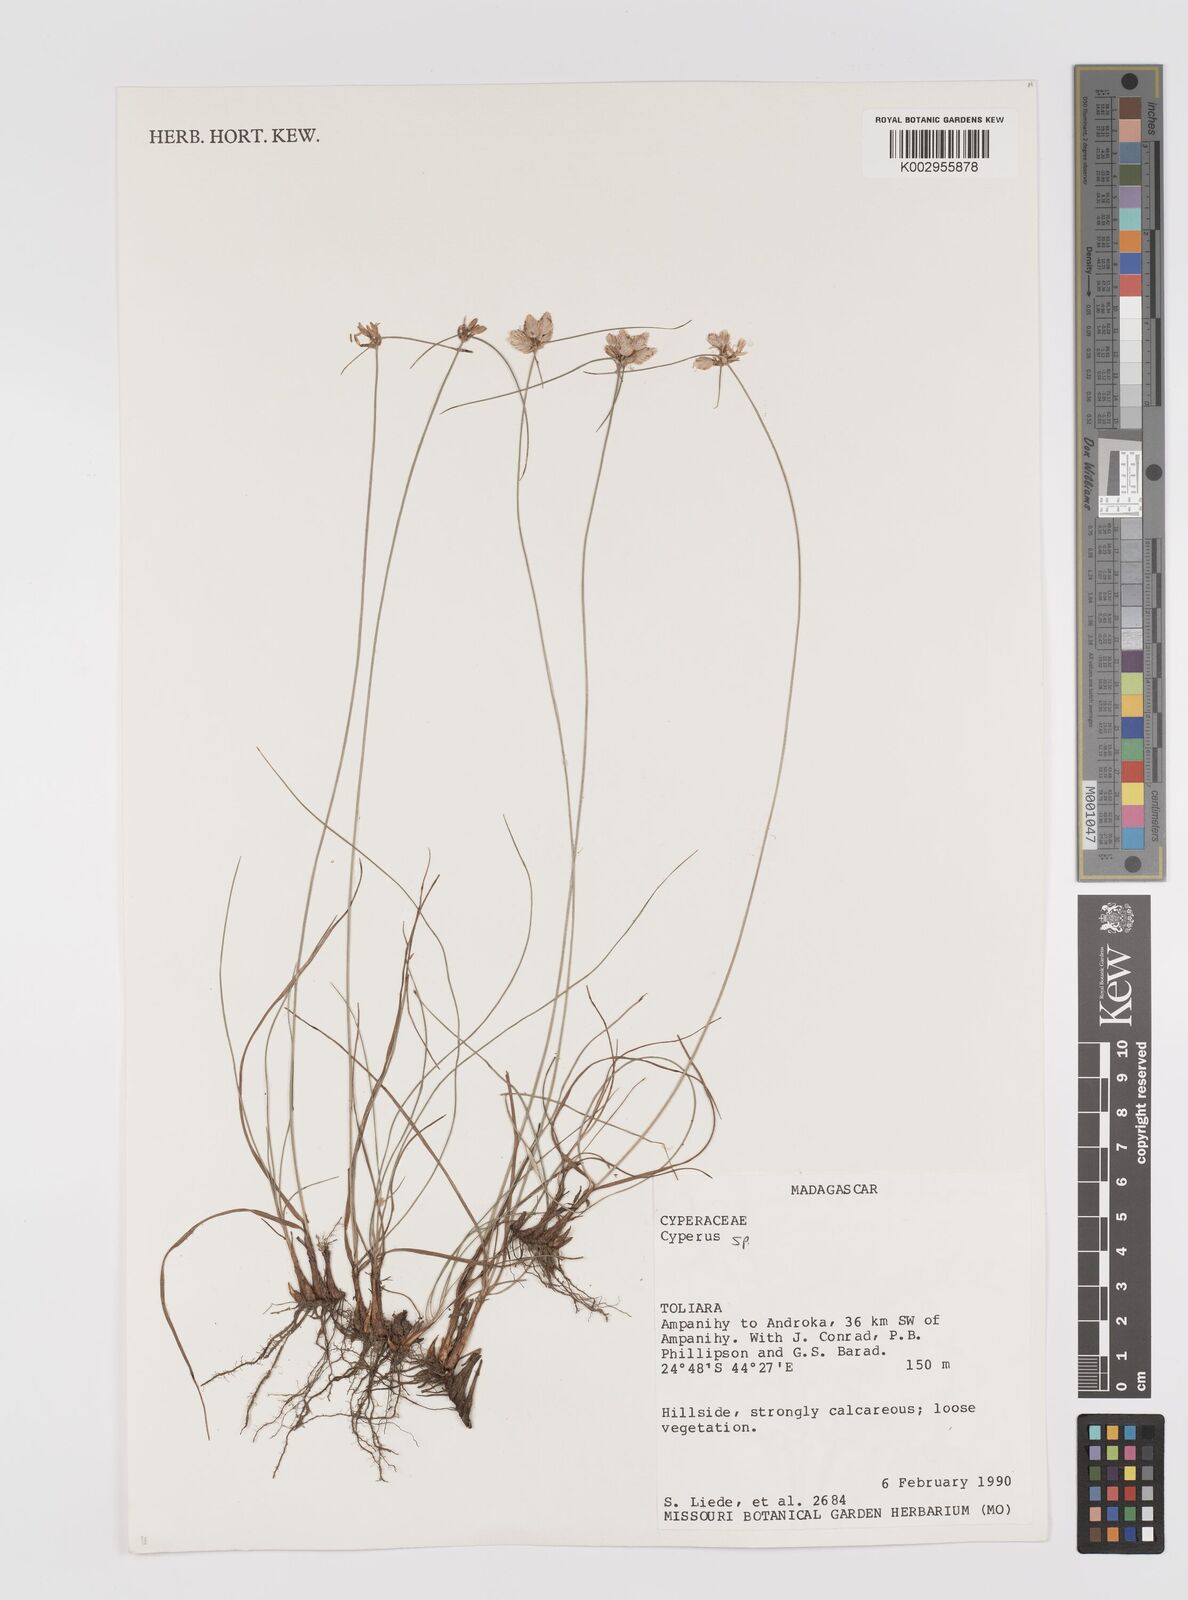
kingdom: Plantae
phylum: Tracheophyta
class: Liliopsida
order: Poales
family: Cyperaceae
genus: Cyperus
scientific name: Cyperus
